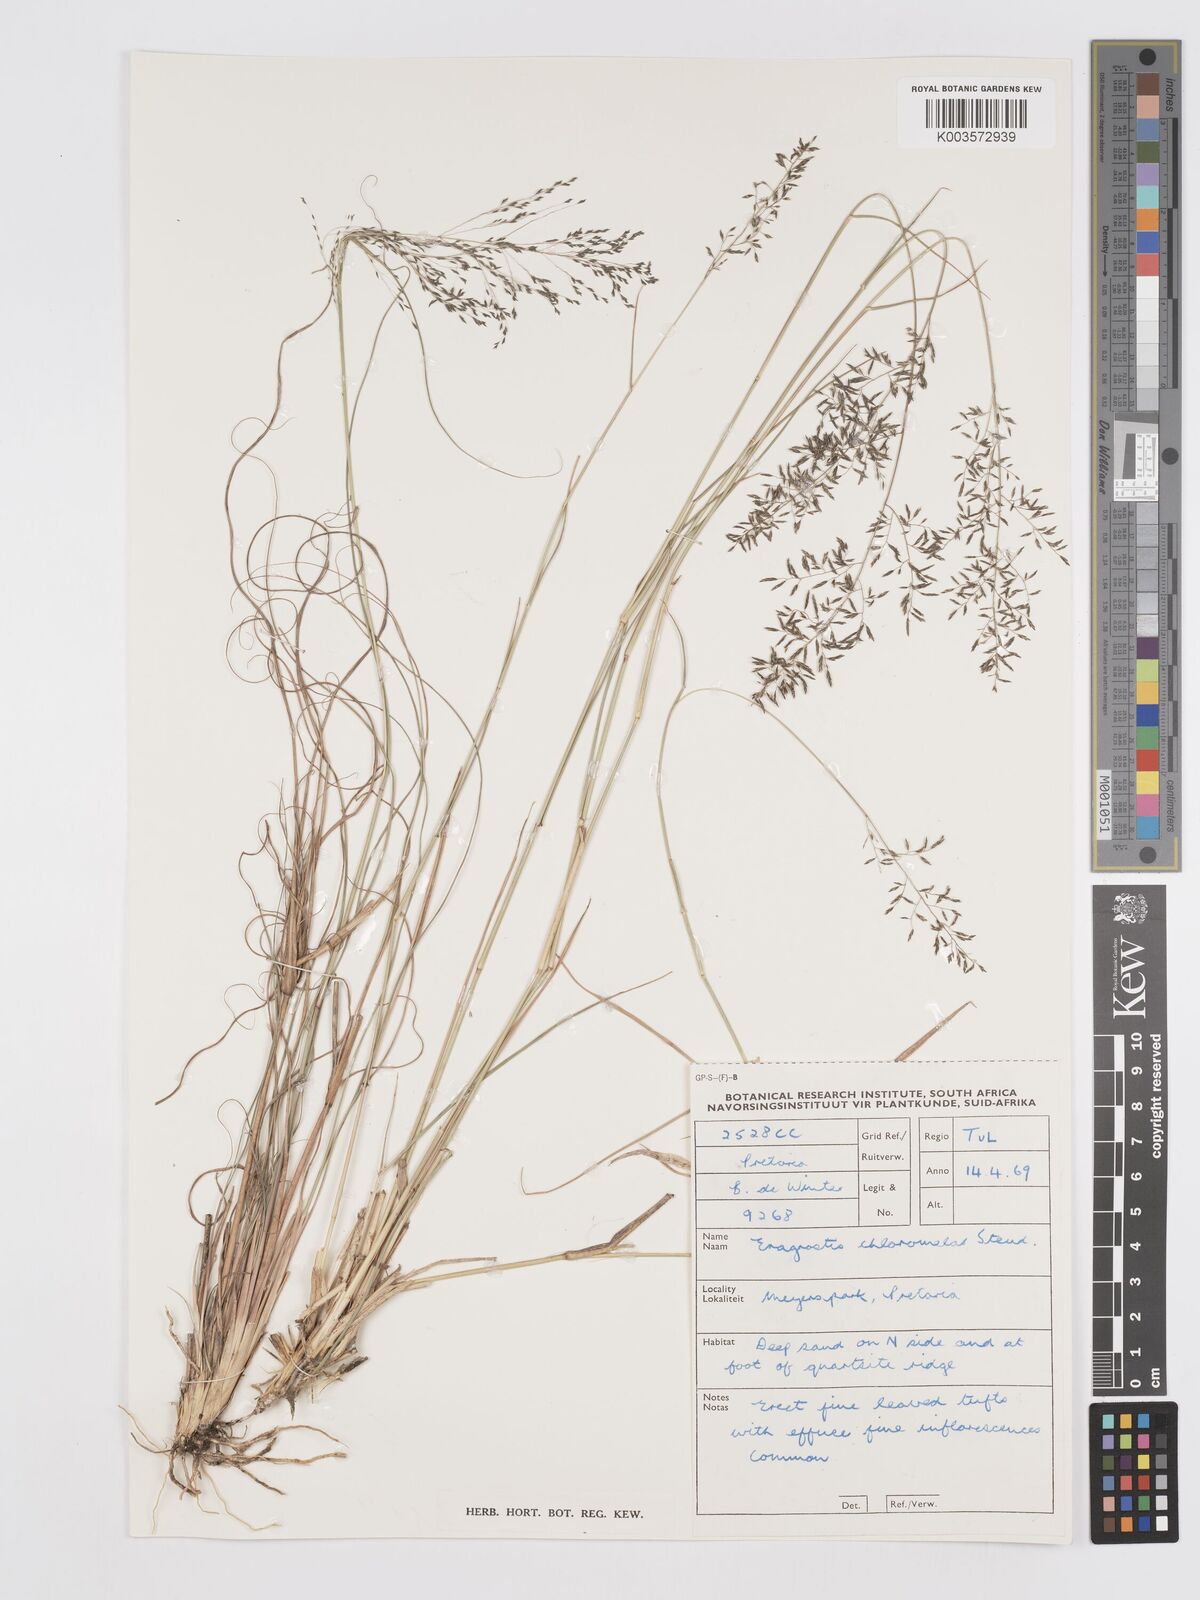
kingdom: Plantae
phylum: Tracheophyta
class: Liliopsida
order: Poales
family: Poaceae
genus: Eragrostis
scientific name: Eragrostis curvula
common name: African love-grass
